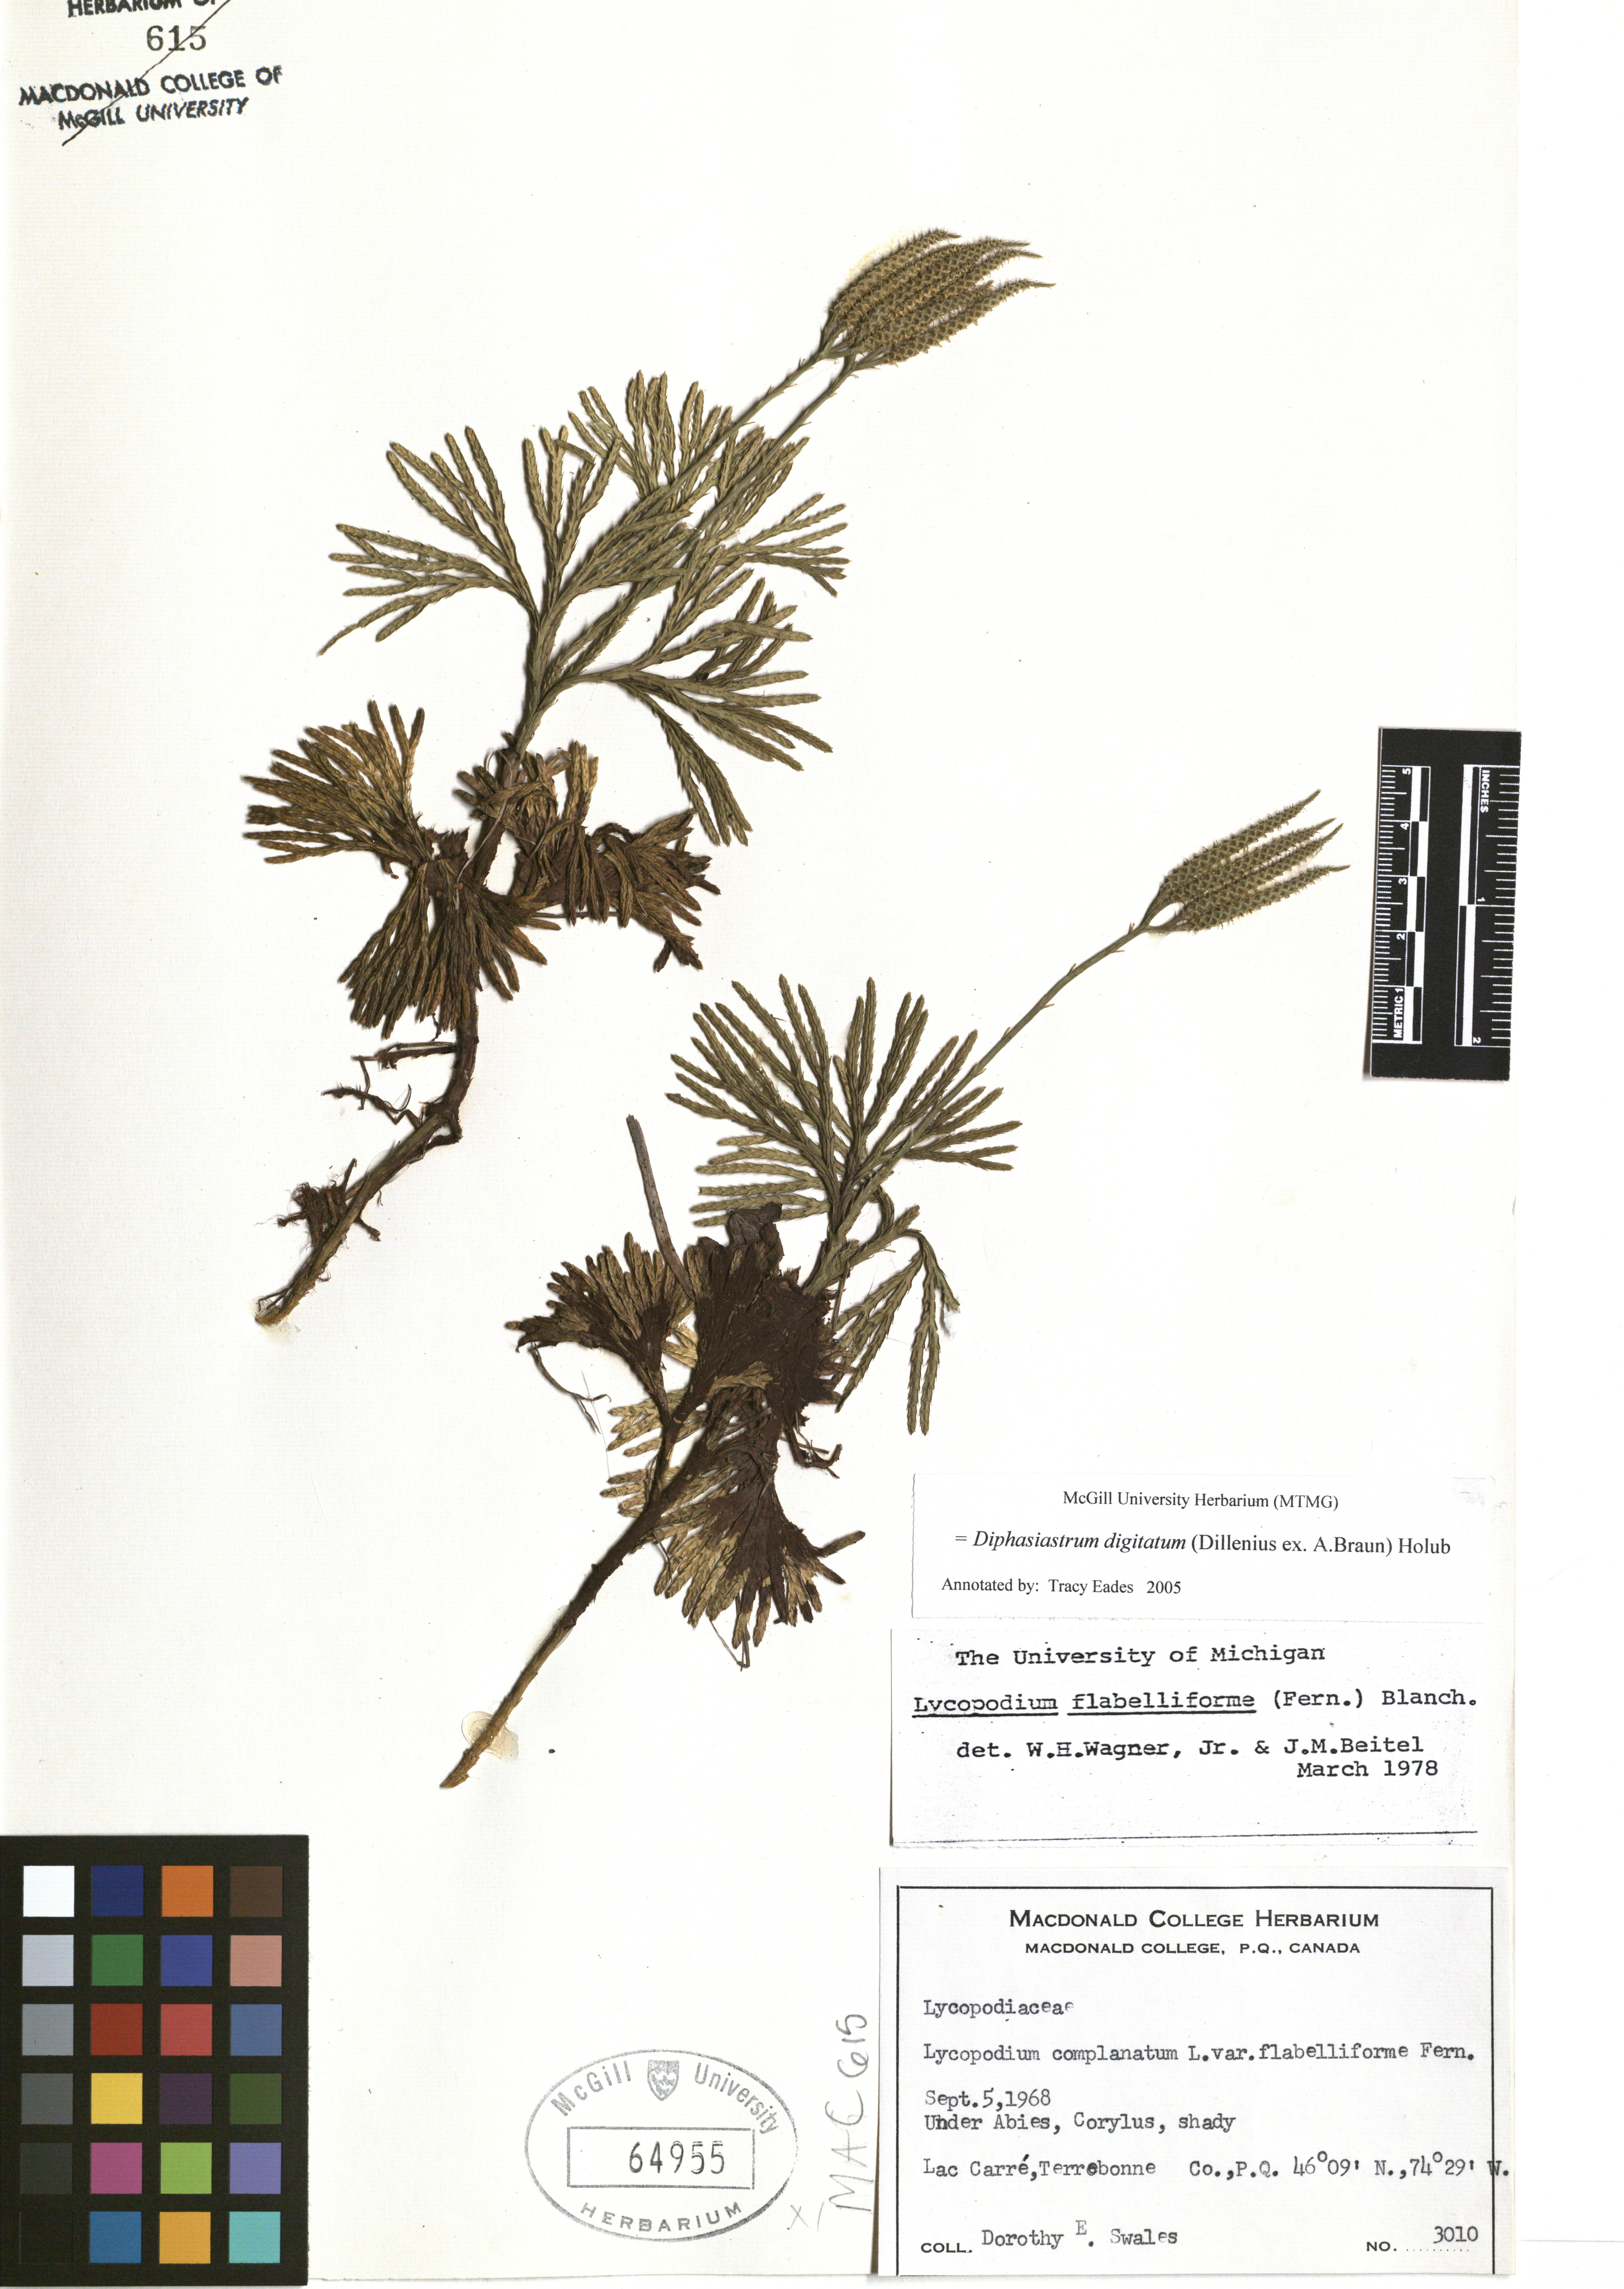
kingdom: Plantae
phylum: Tracheophyta
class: Lycopodiopsida
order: Lycopodiales
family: Lycopodiaceae
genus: Diphasiastrum
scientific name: Diphasiastrum digitatum
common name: Southern running-pine
